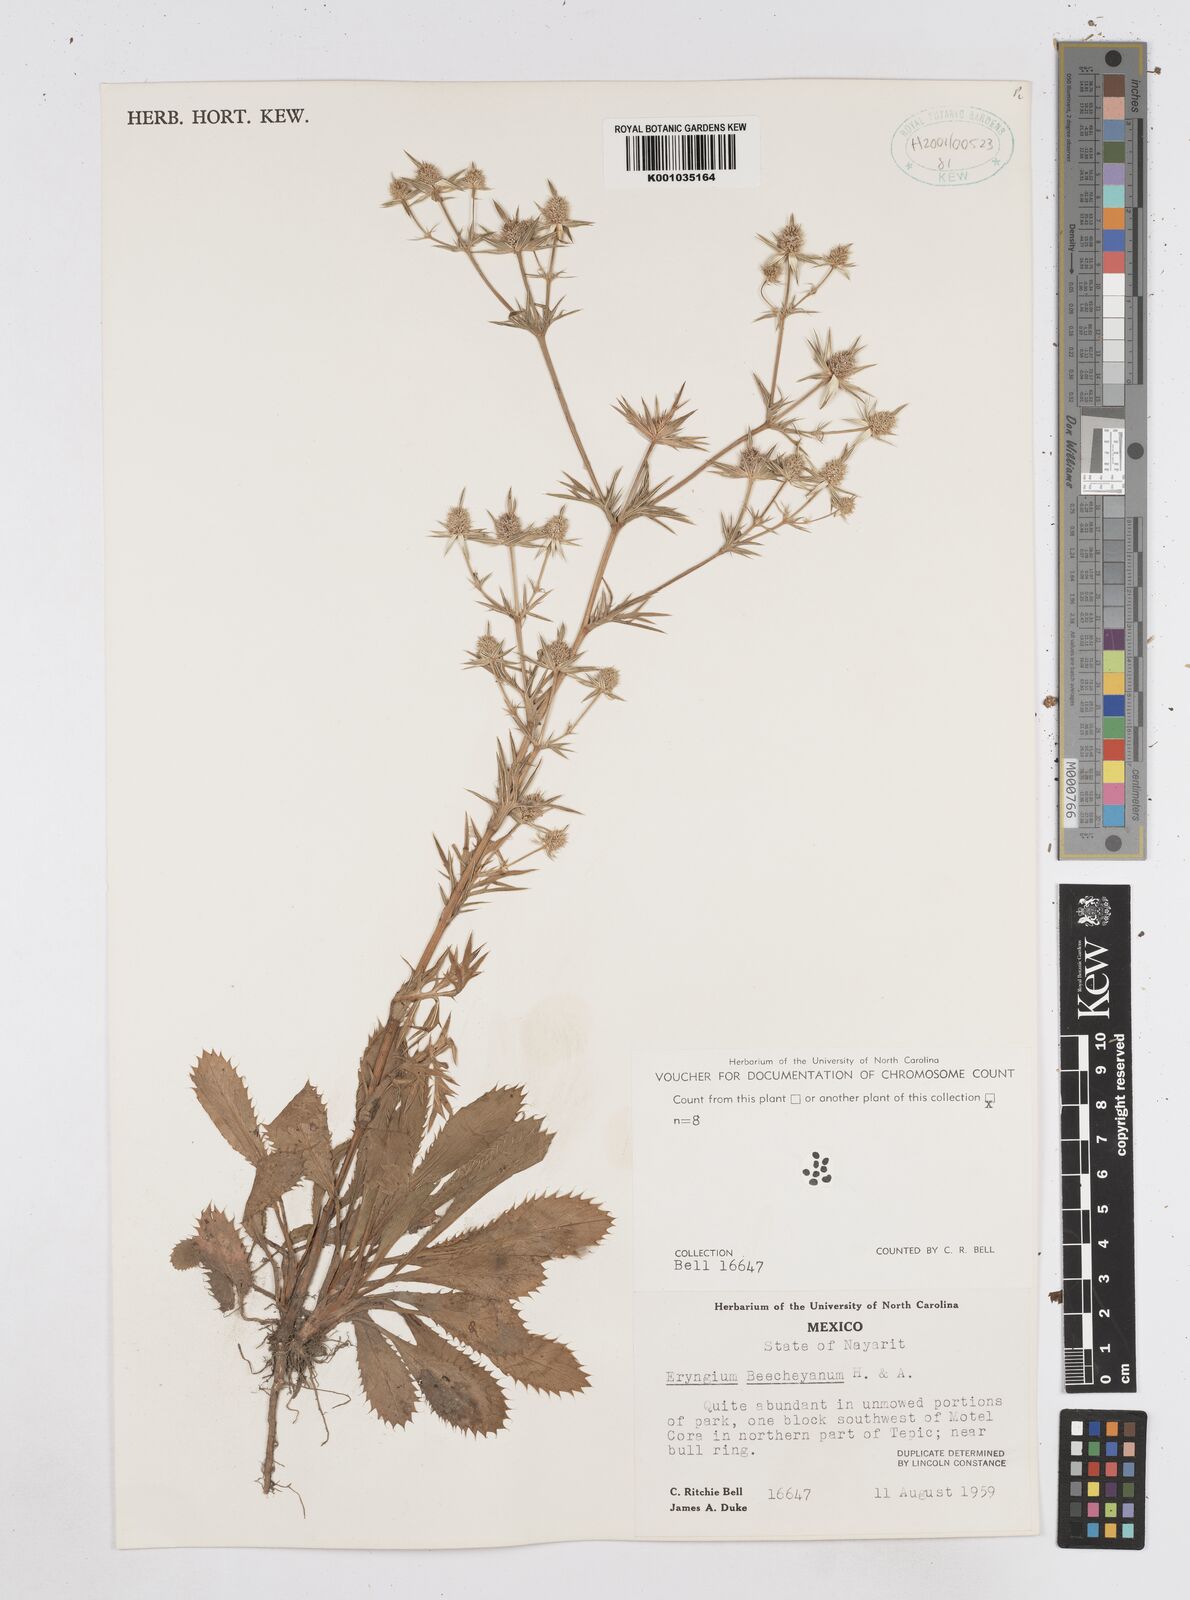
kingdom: Plantae
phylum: Tracheophyta
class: Magnoliopsida
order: Apiales
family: Apiaceae
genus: Eryngium
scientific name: Eryngium beecheyanum
